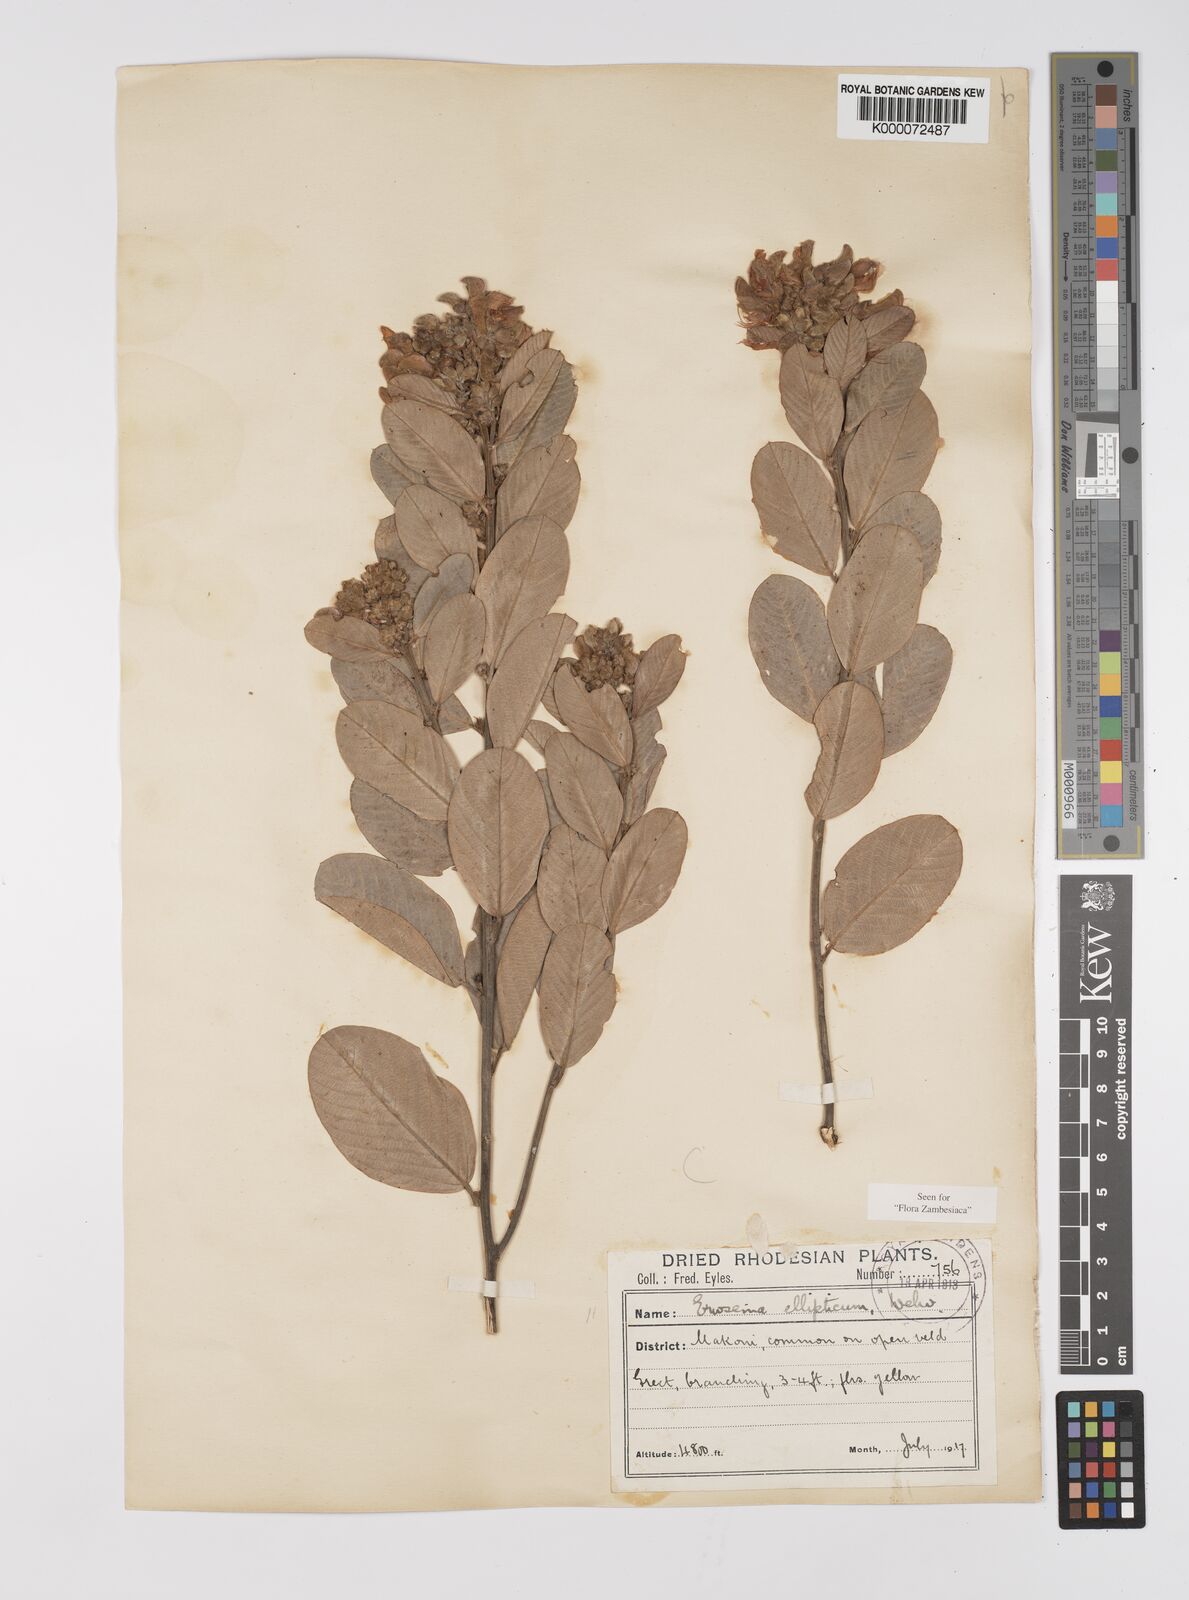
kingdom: Plantae
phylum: Tracheophyta
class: Magnoliopsida
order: Fabales
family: Fabaceae
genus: Eriosema
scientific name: Eriosema ellipticum
